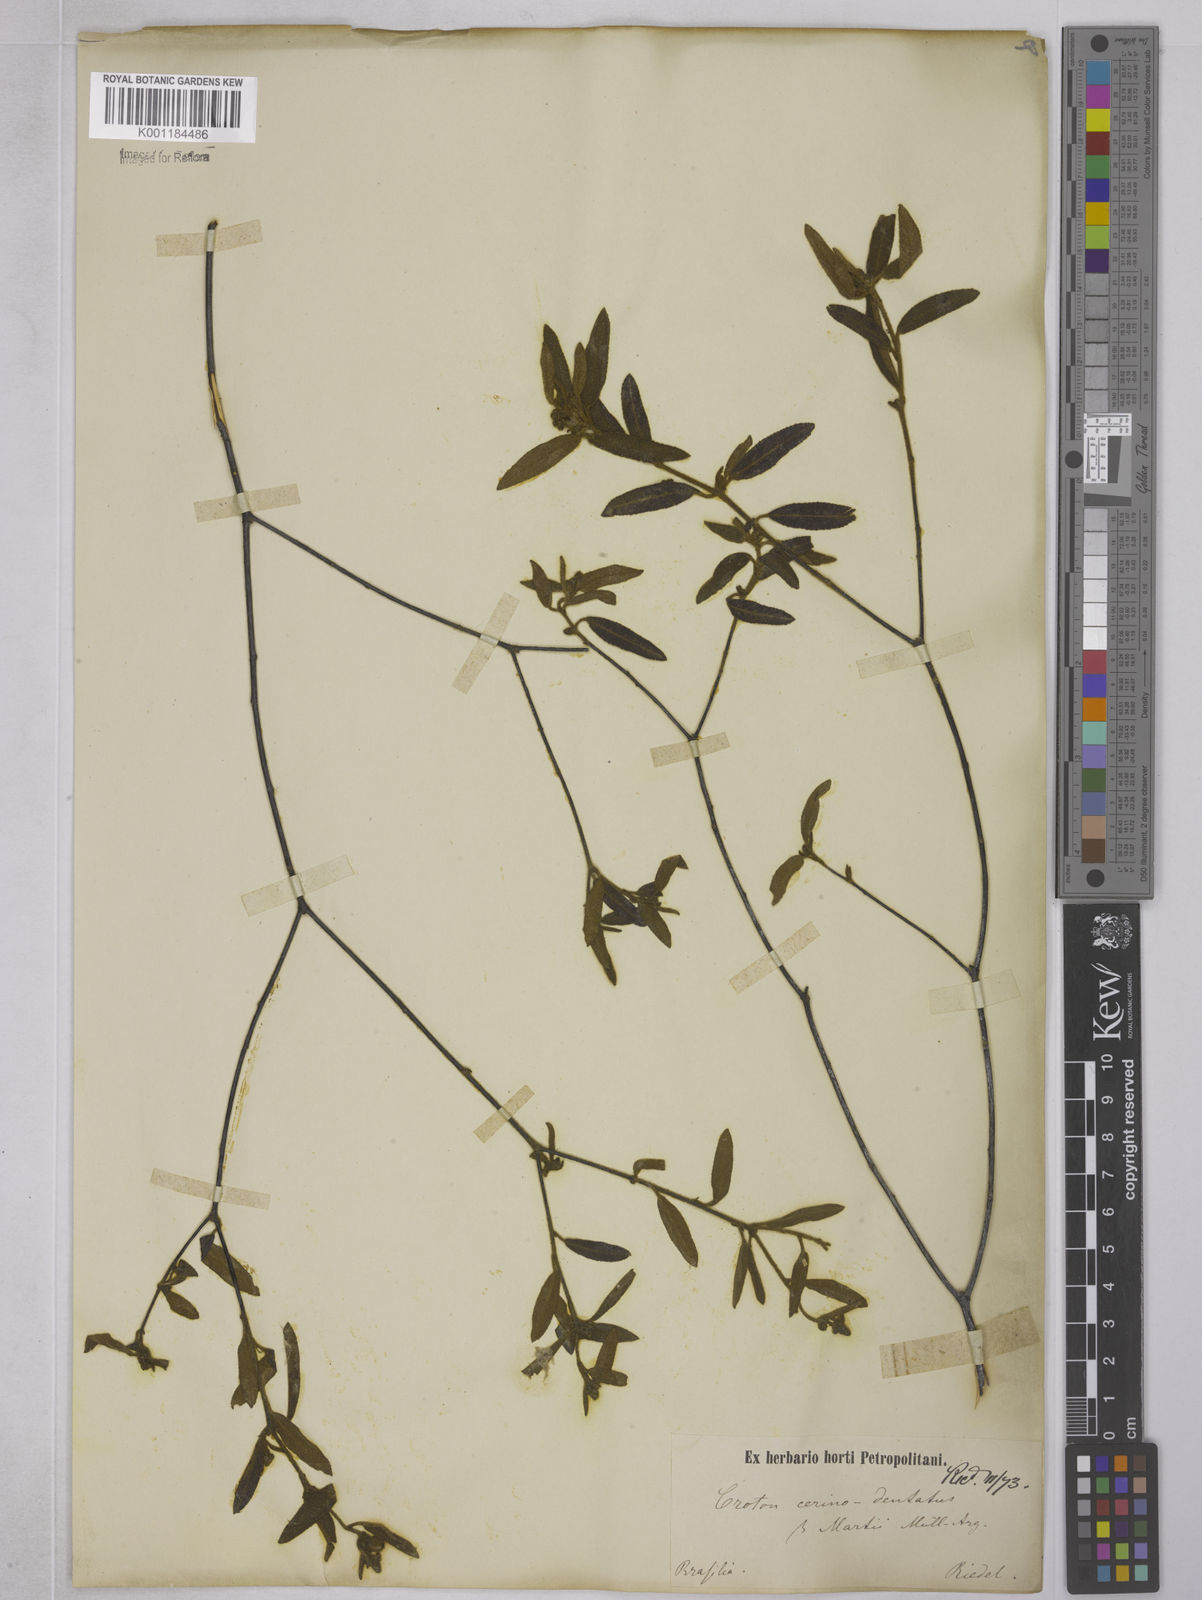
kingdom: Plantae
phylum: Tracheophyta
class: Magnoliopsida
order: Vitales
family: Vitaceae
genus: Cissus
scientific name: Cissus sulcicaulis
